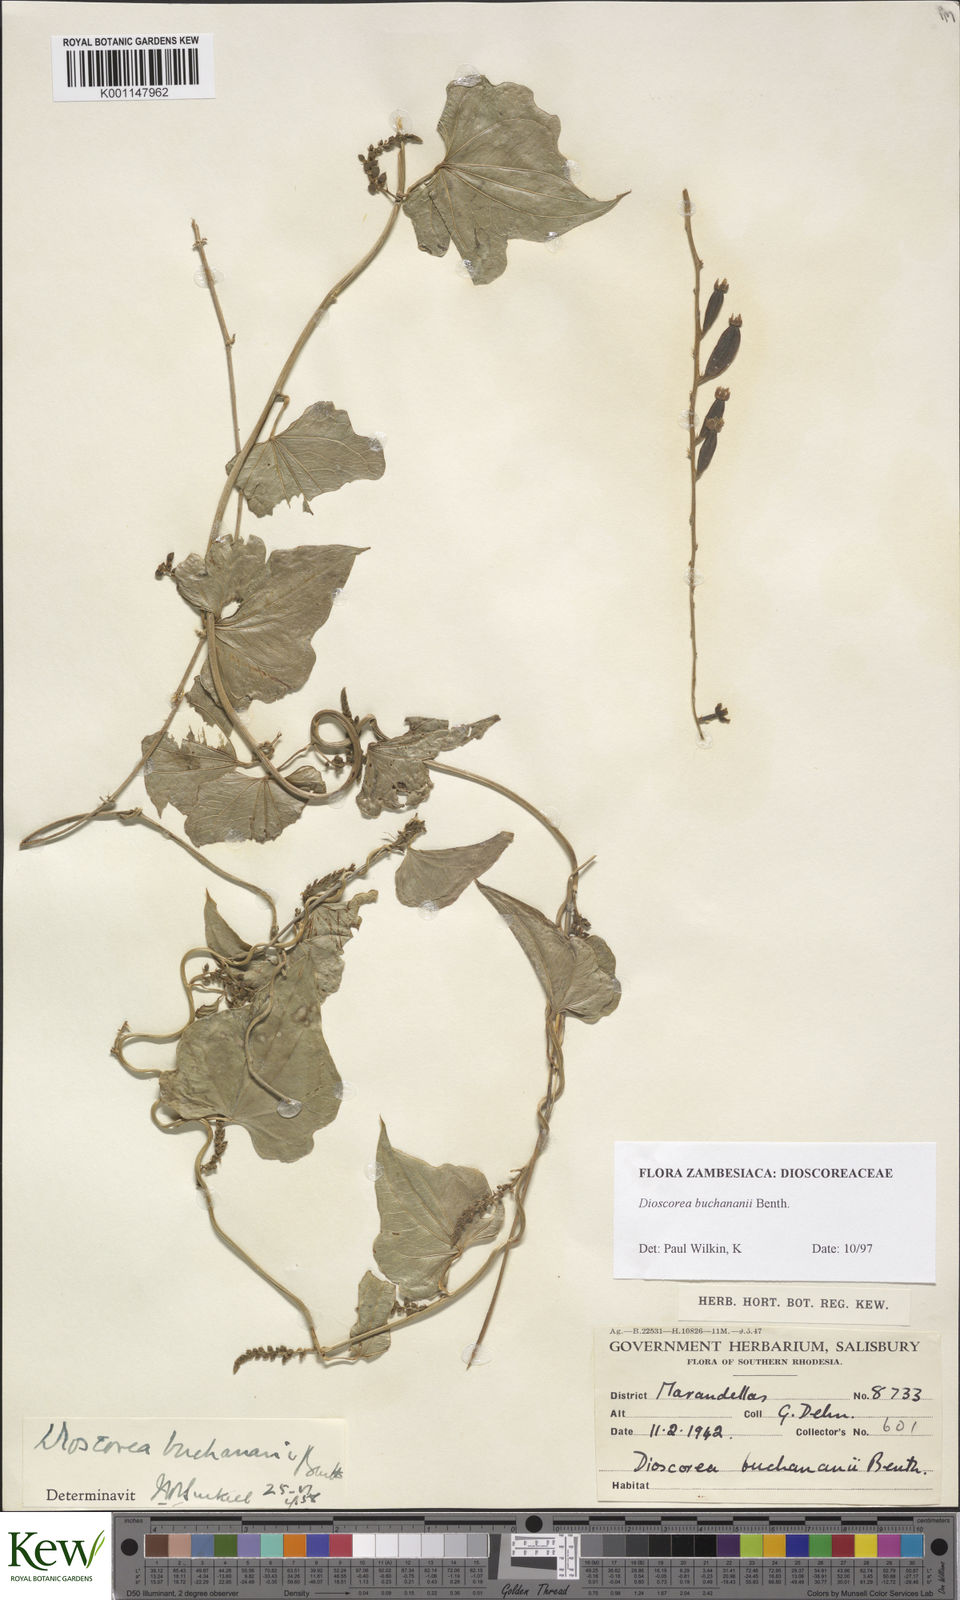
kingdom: Plantae
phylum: Tracheophyta
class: Liliopsida
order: Dioscoreales
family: Dioscoreaceae
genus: Dioscorea
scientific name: Dioscorea buchananii
